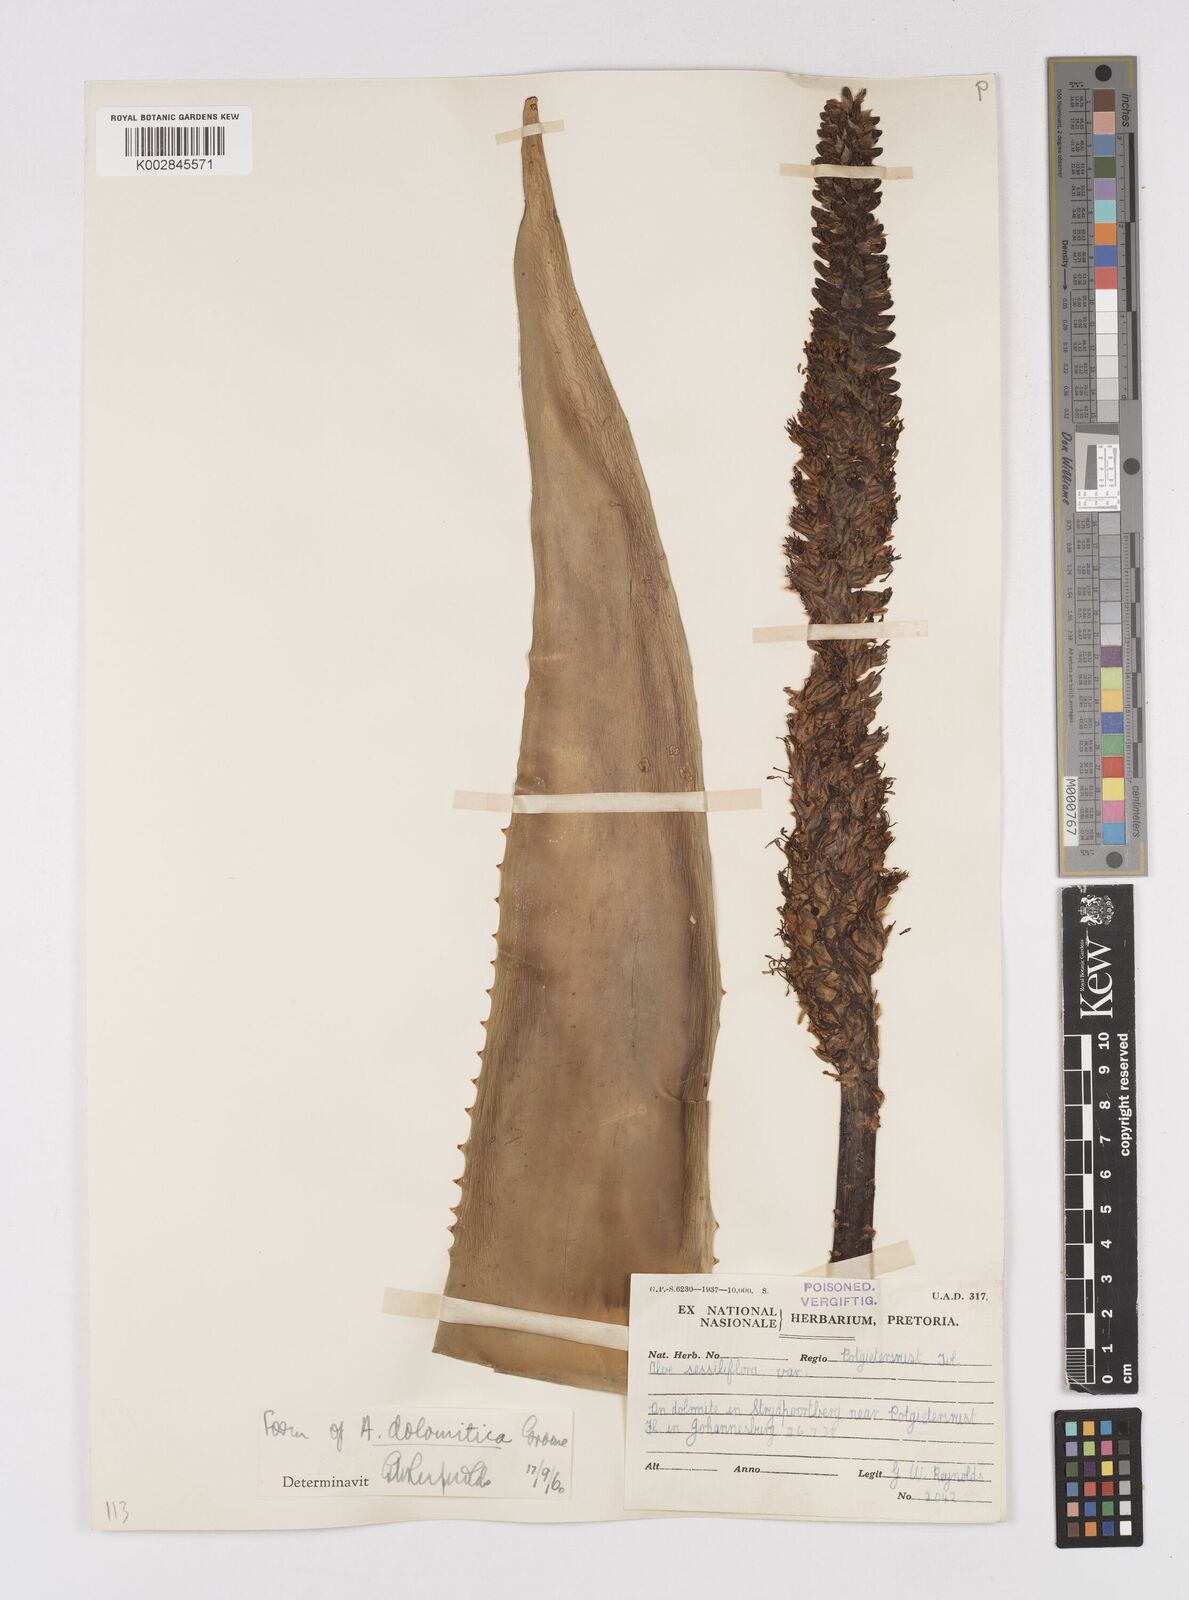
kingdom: Plantae
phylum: Tracheophyta
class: Liliopsida
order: Asparagales
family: Asphodelaceae
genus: Aloe
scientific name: Aloe vryheidensis
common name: Vryheid aloe
